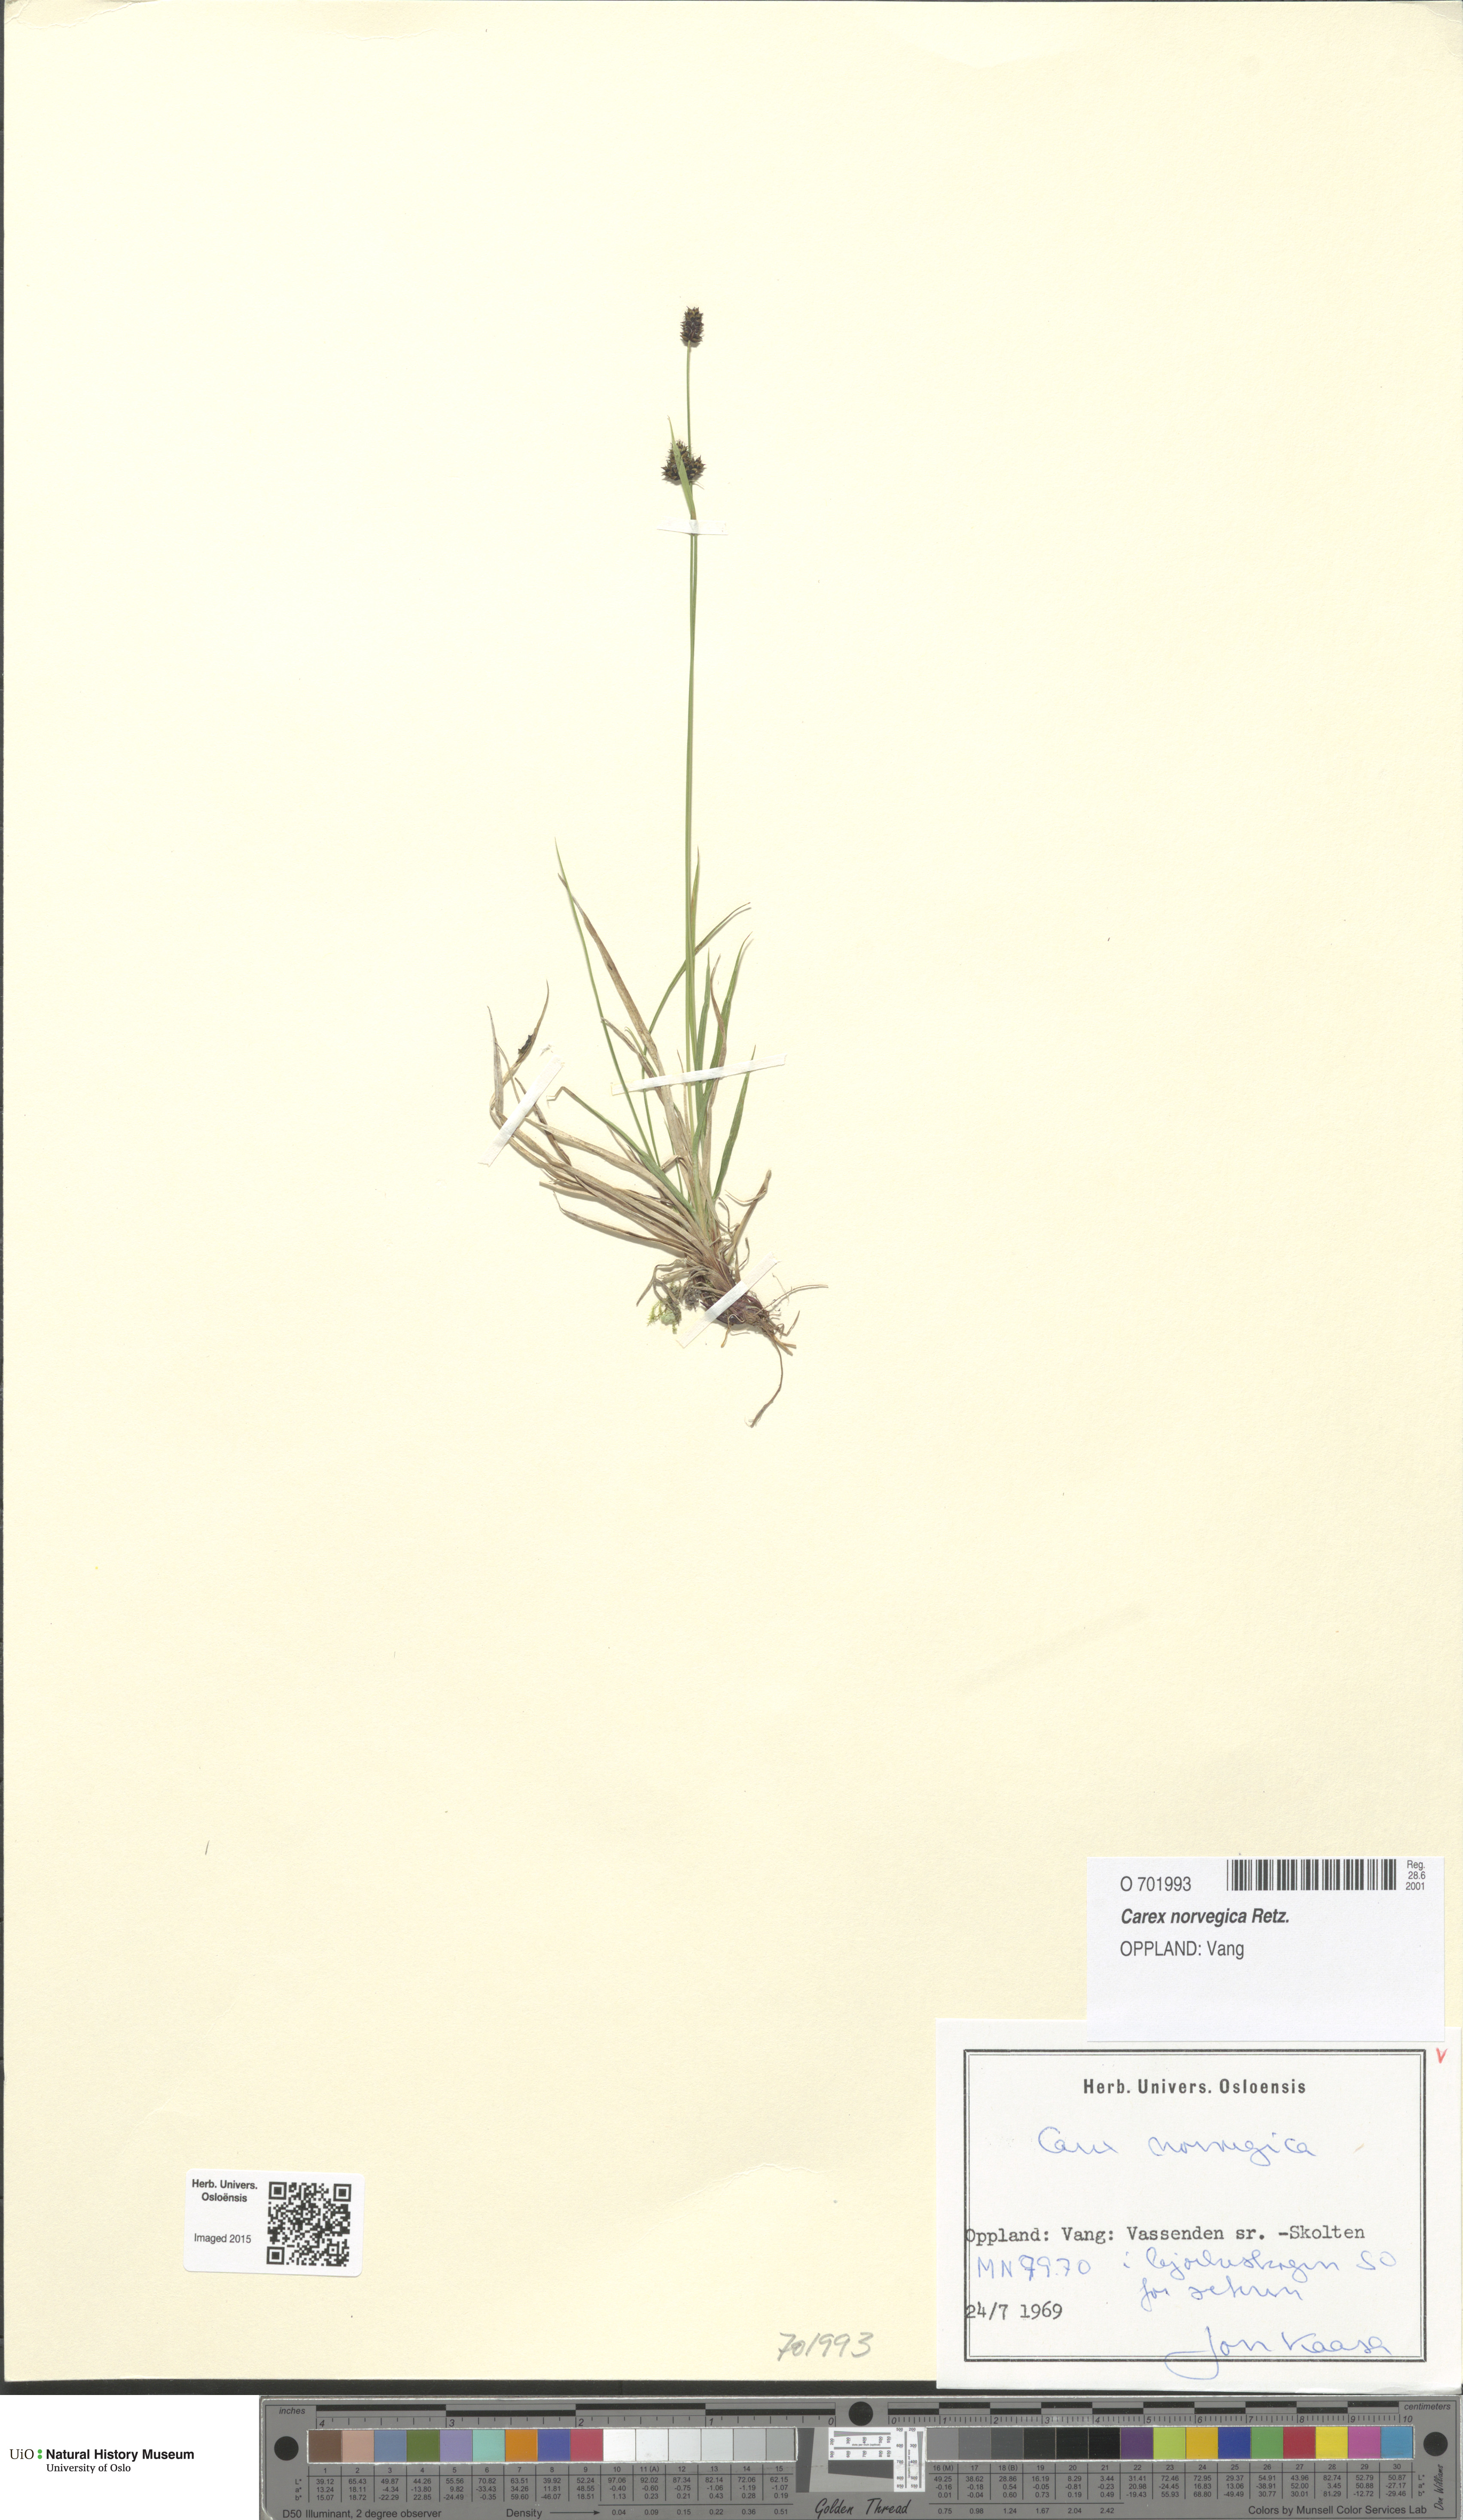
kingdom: Plantae
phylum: Tracheophyta
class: Liliopsida
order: Poales
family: Cyperaceae
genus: Carex
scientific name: Carex norvegica
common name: Close-headed alpine-sedge
